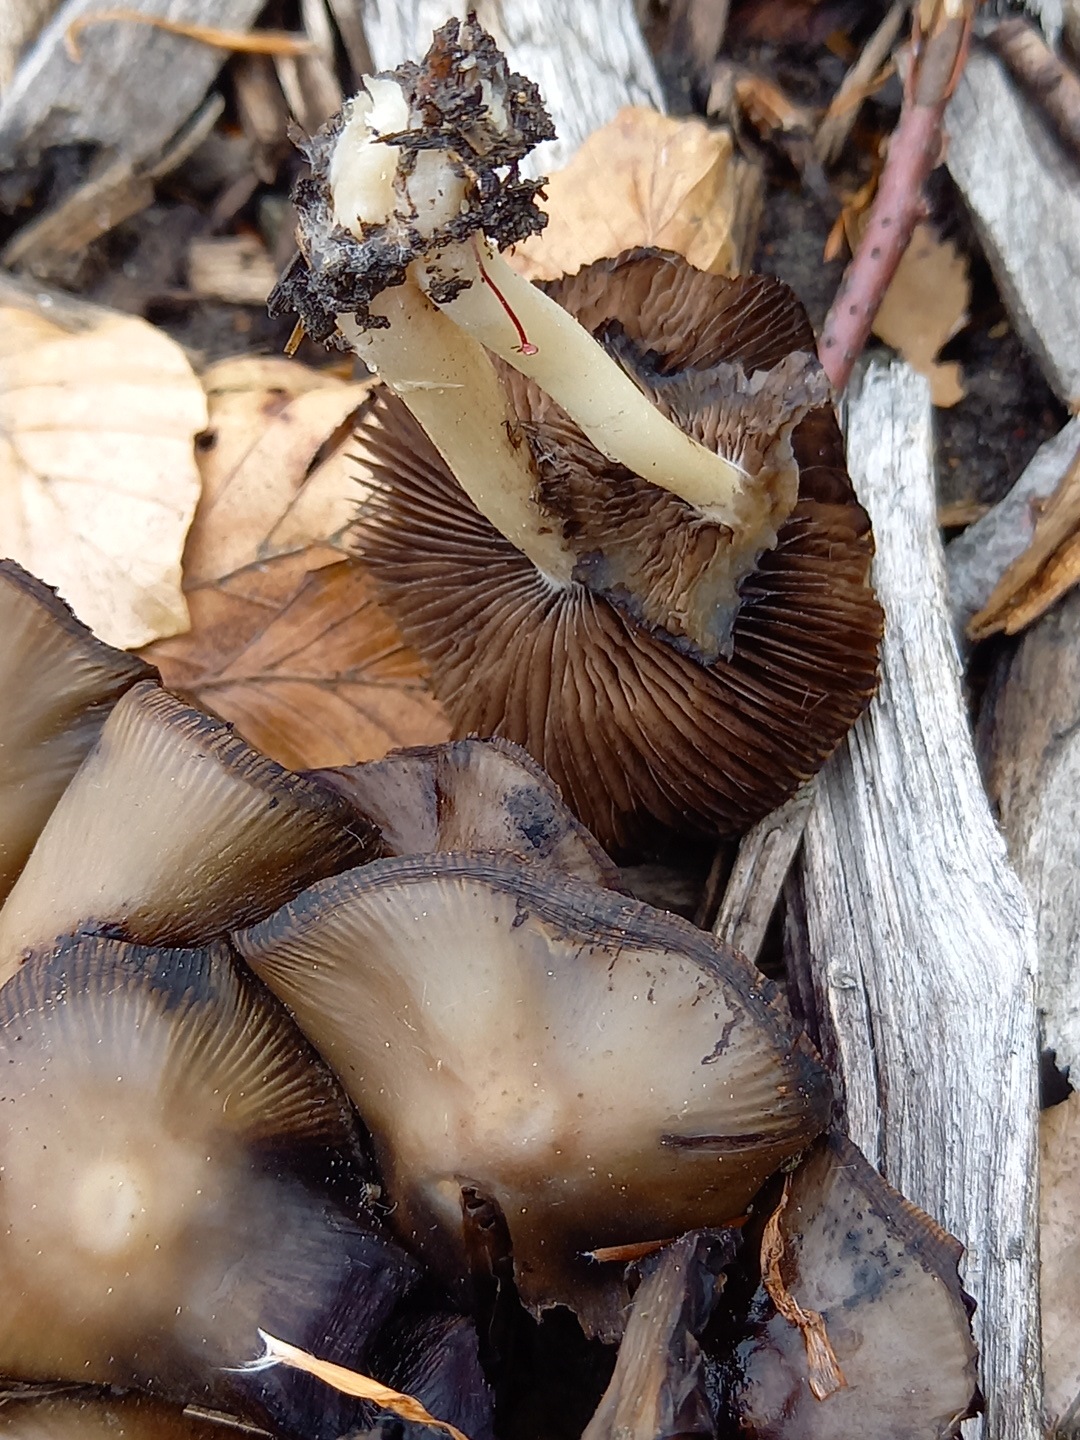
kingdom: Fungi
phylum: Basidiomycota
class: Agaricomycetes
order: Agaricales
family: Psathyrellaceae
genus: Psathyrella
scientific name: Psathyrella
